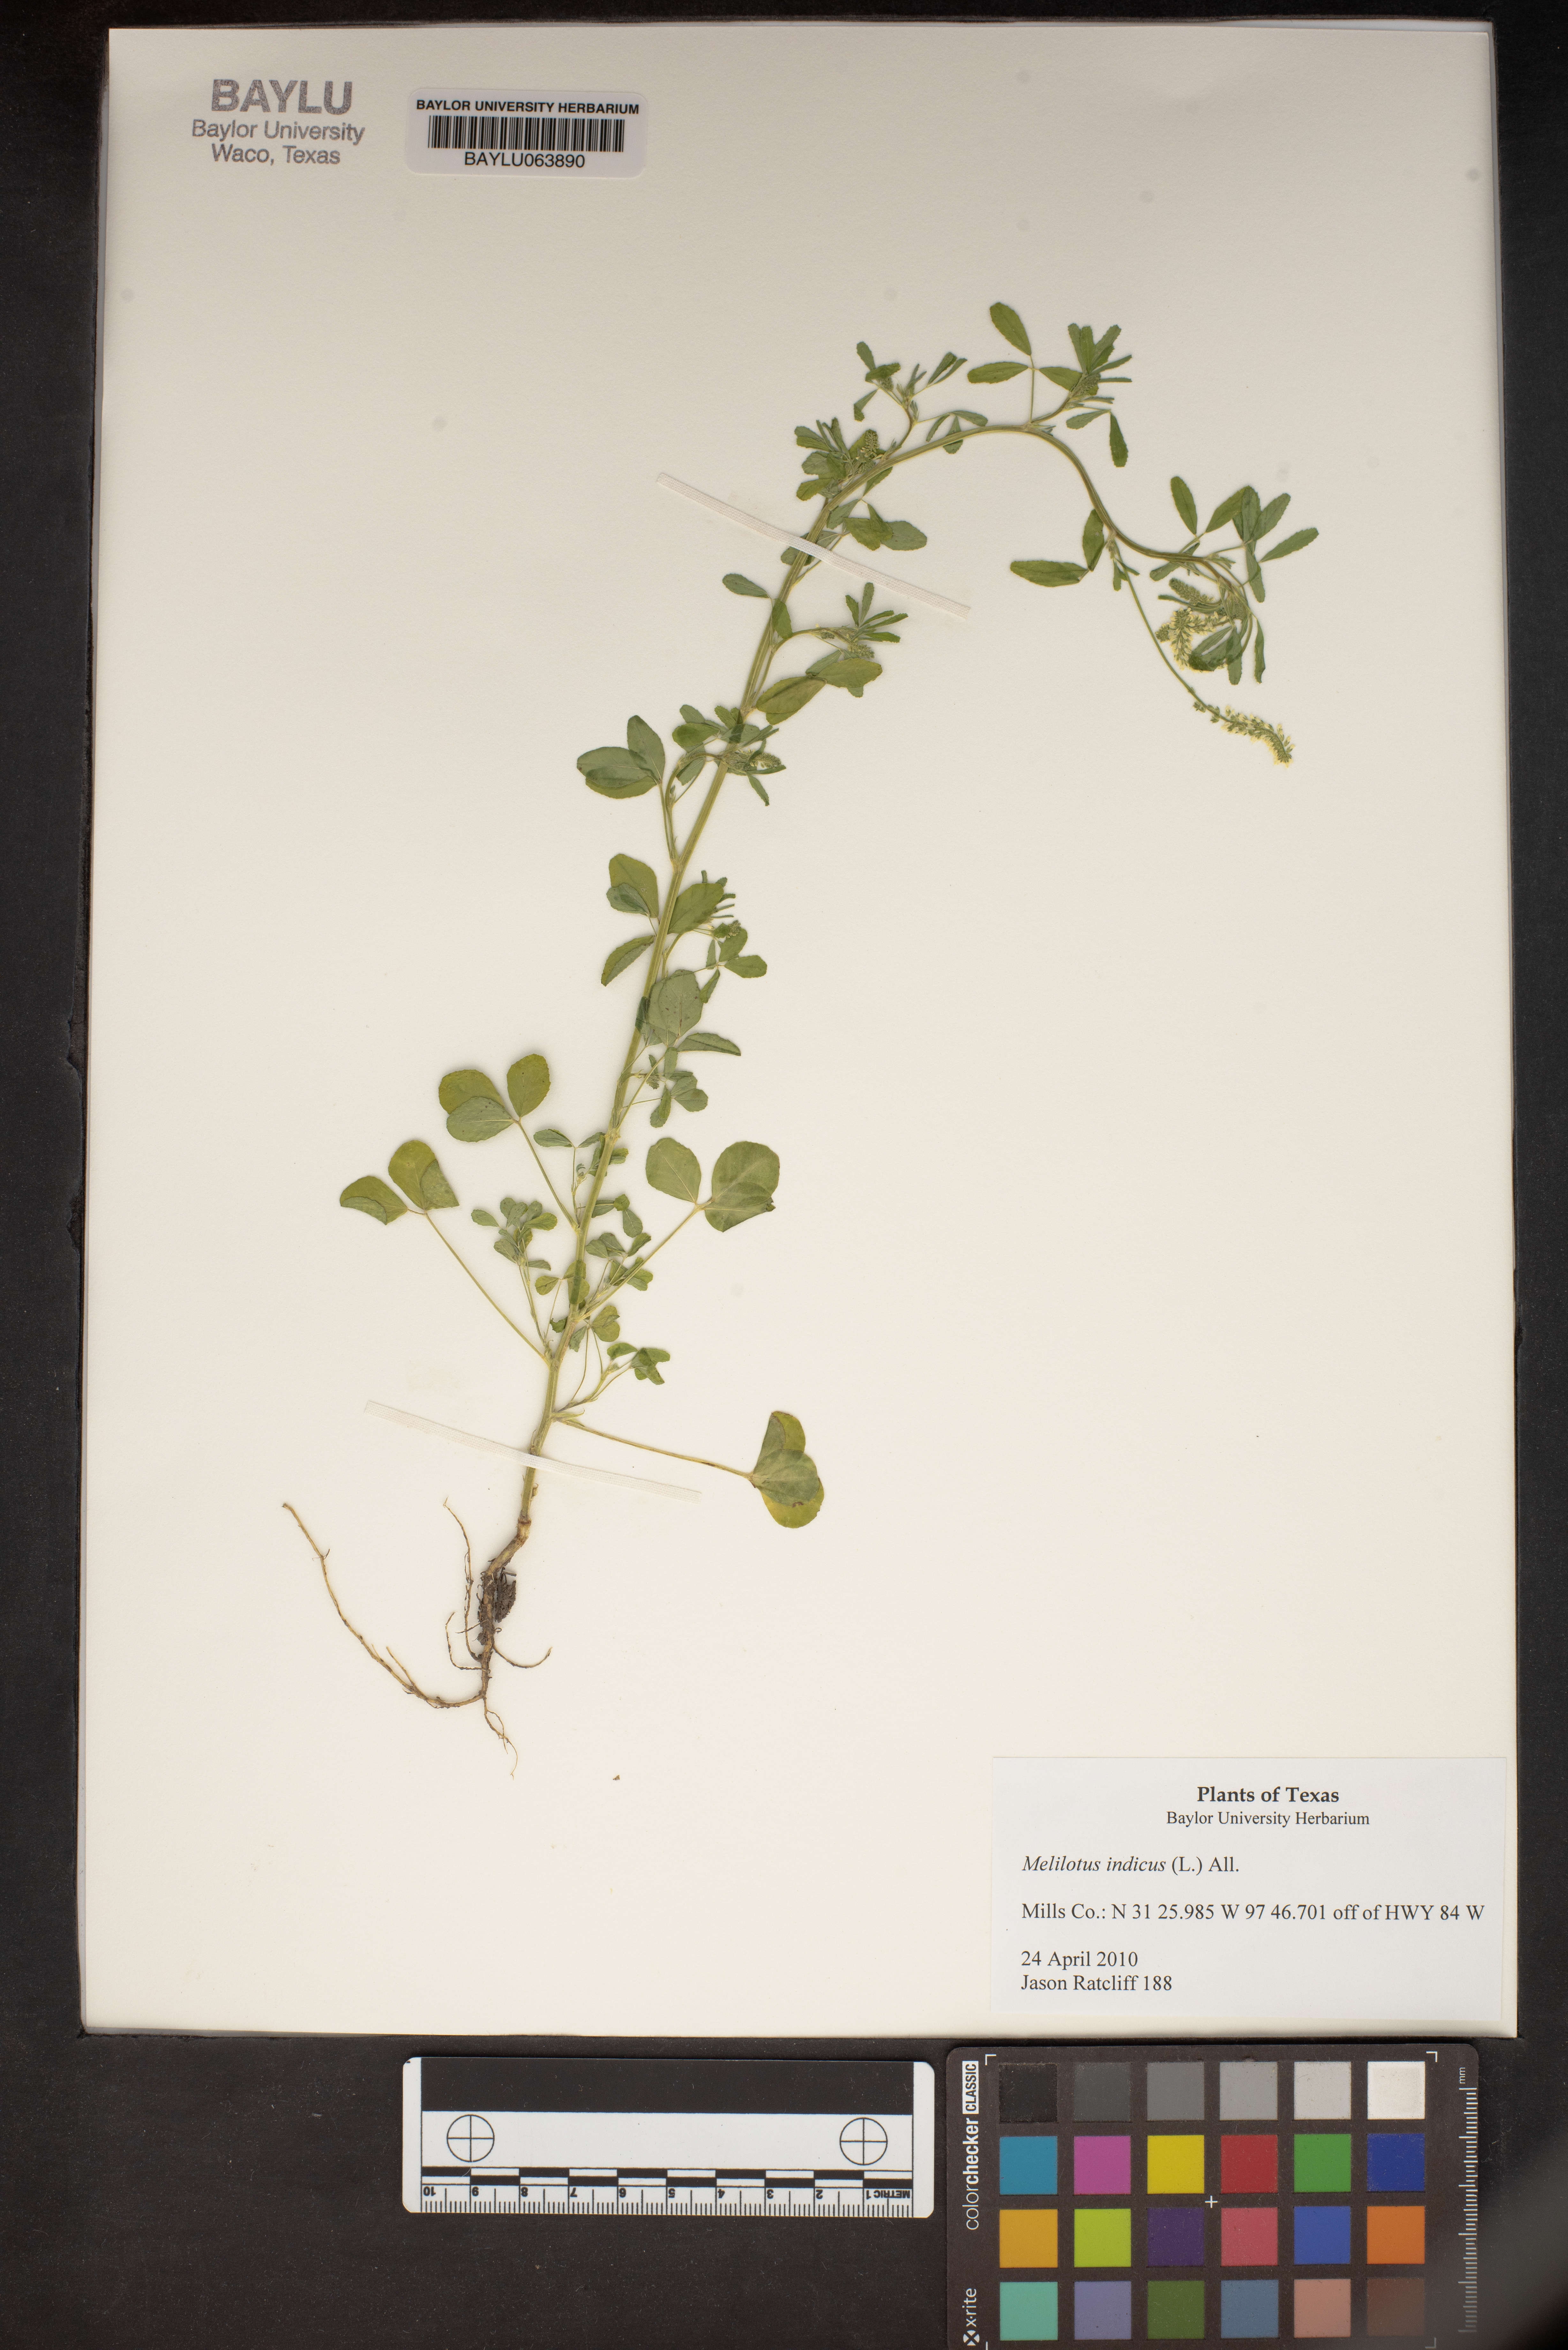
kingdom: Plantae
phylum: Tracheophyta
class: Magnoliopsida
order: Fabales
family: Fabaceae
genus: Melilotus
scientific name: Melilotus indicus
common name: Small melilot
